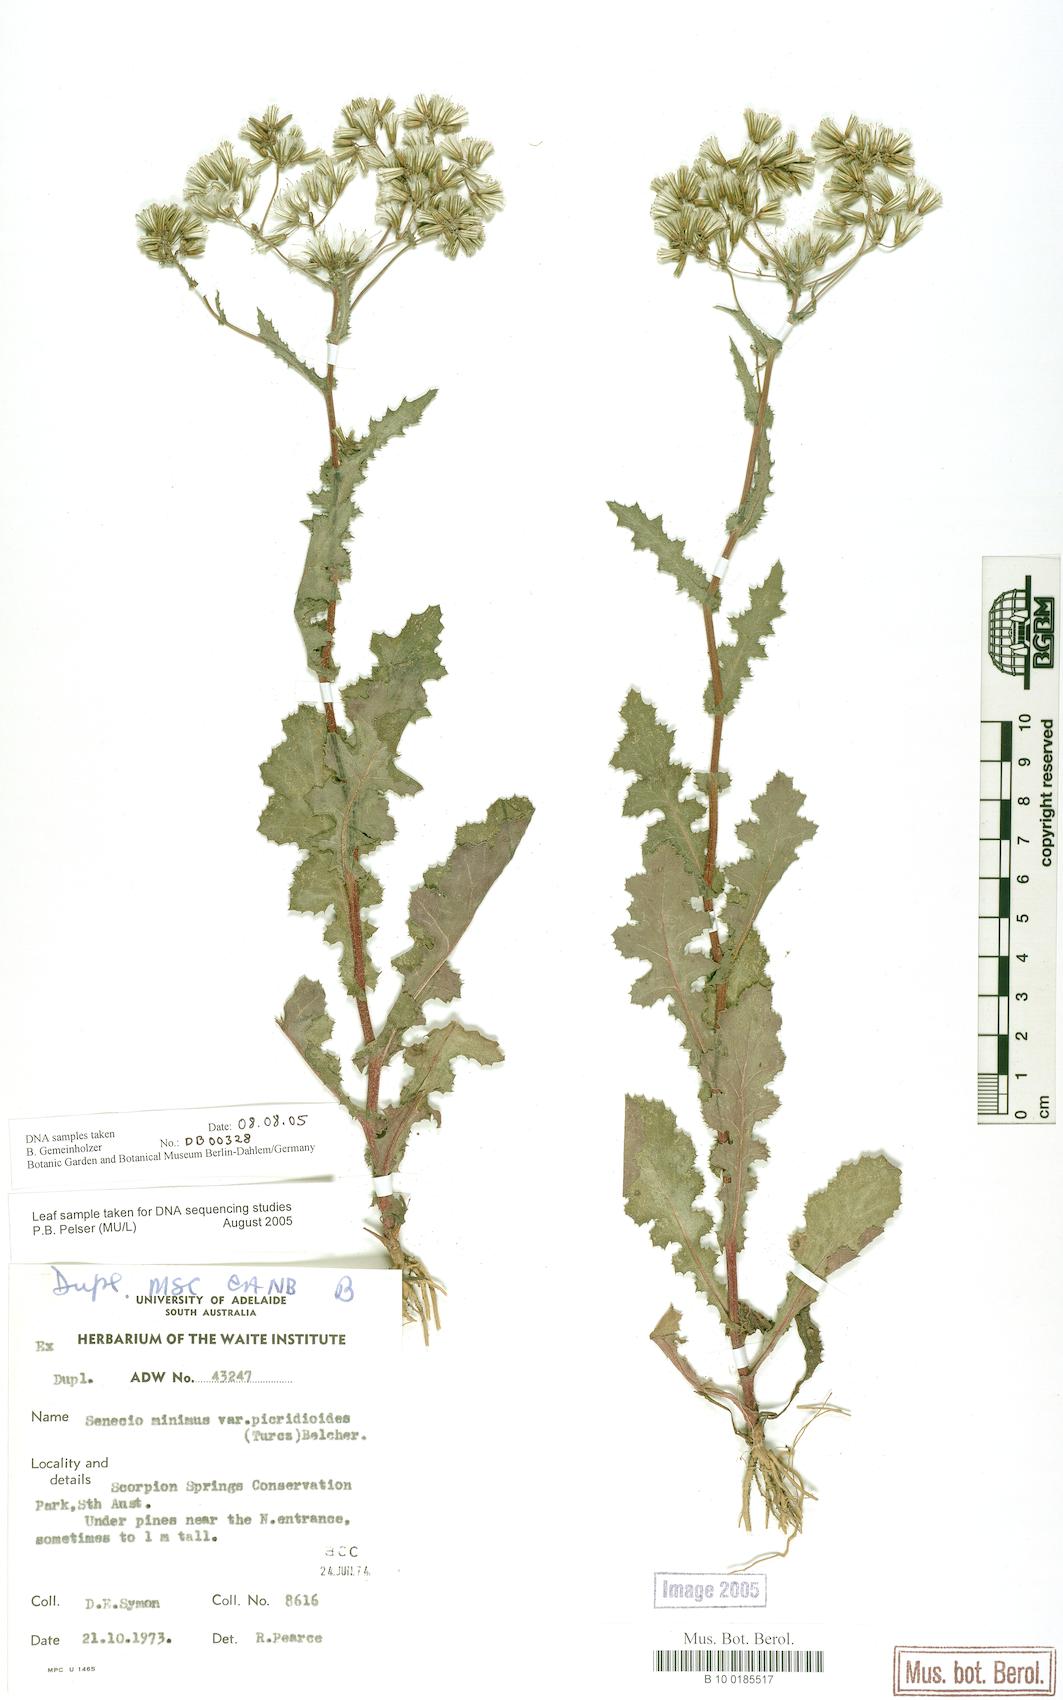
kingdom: Plantae
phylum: Tracheophyta
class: Magnoliopsida
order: Asterales
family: Asteraceae
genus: Senecio
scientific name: Senecio minimus
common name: Toothed fireweed
